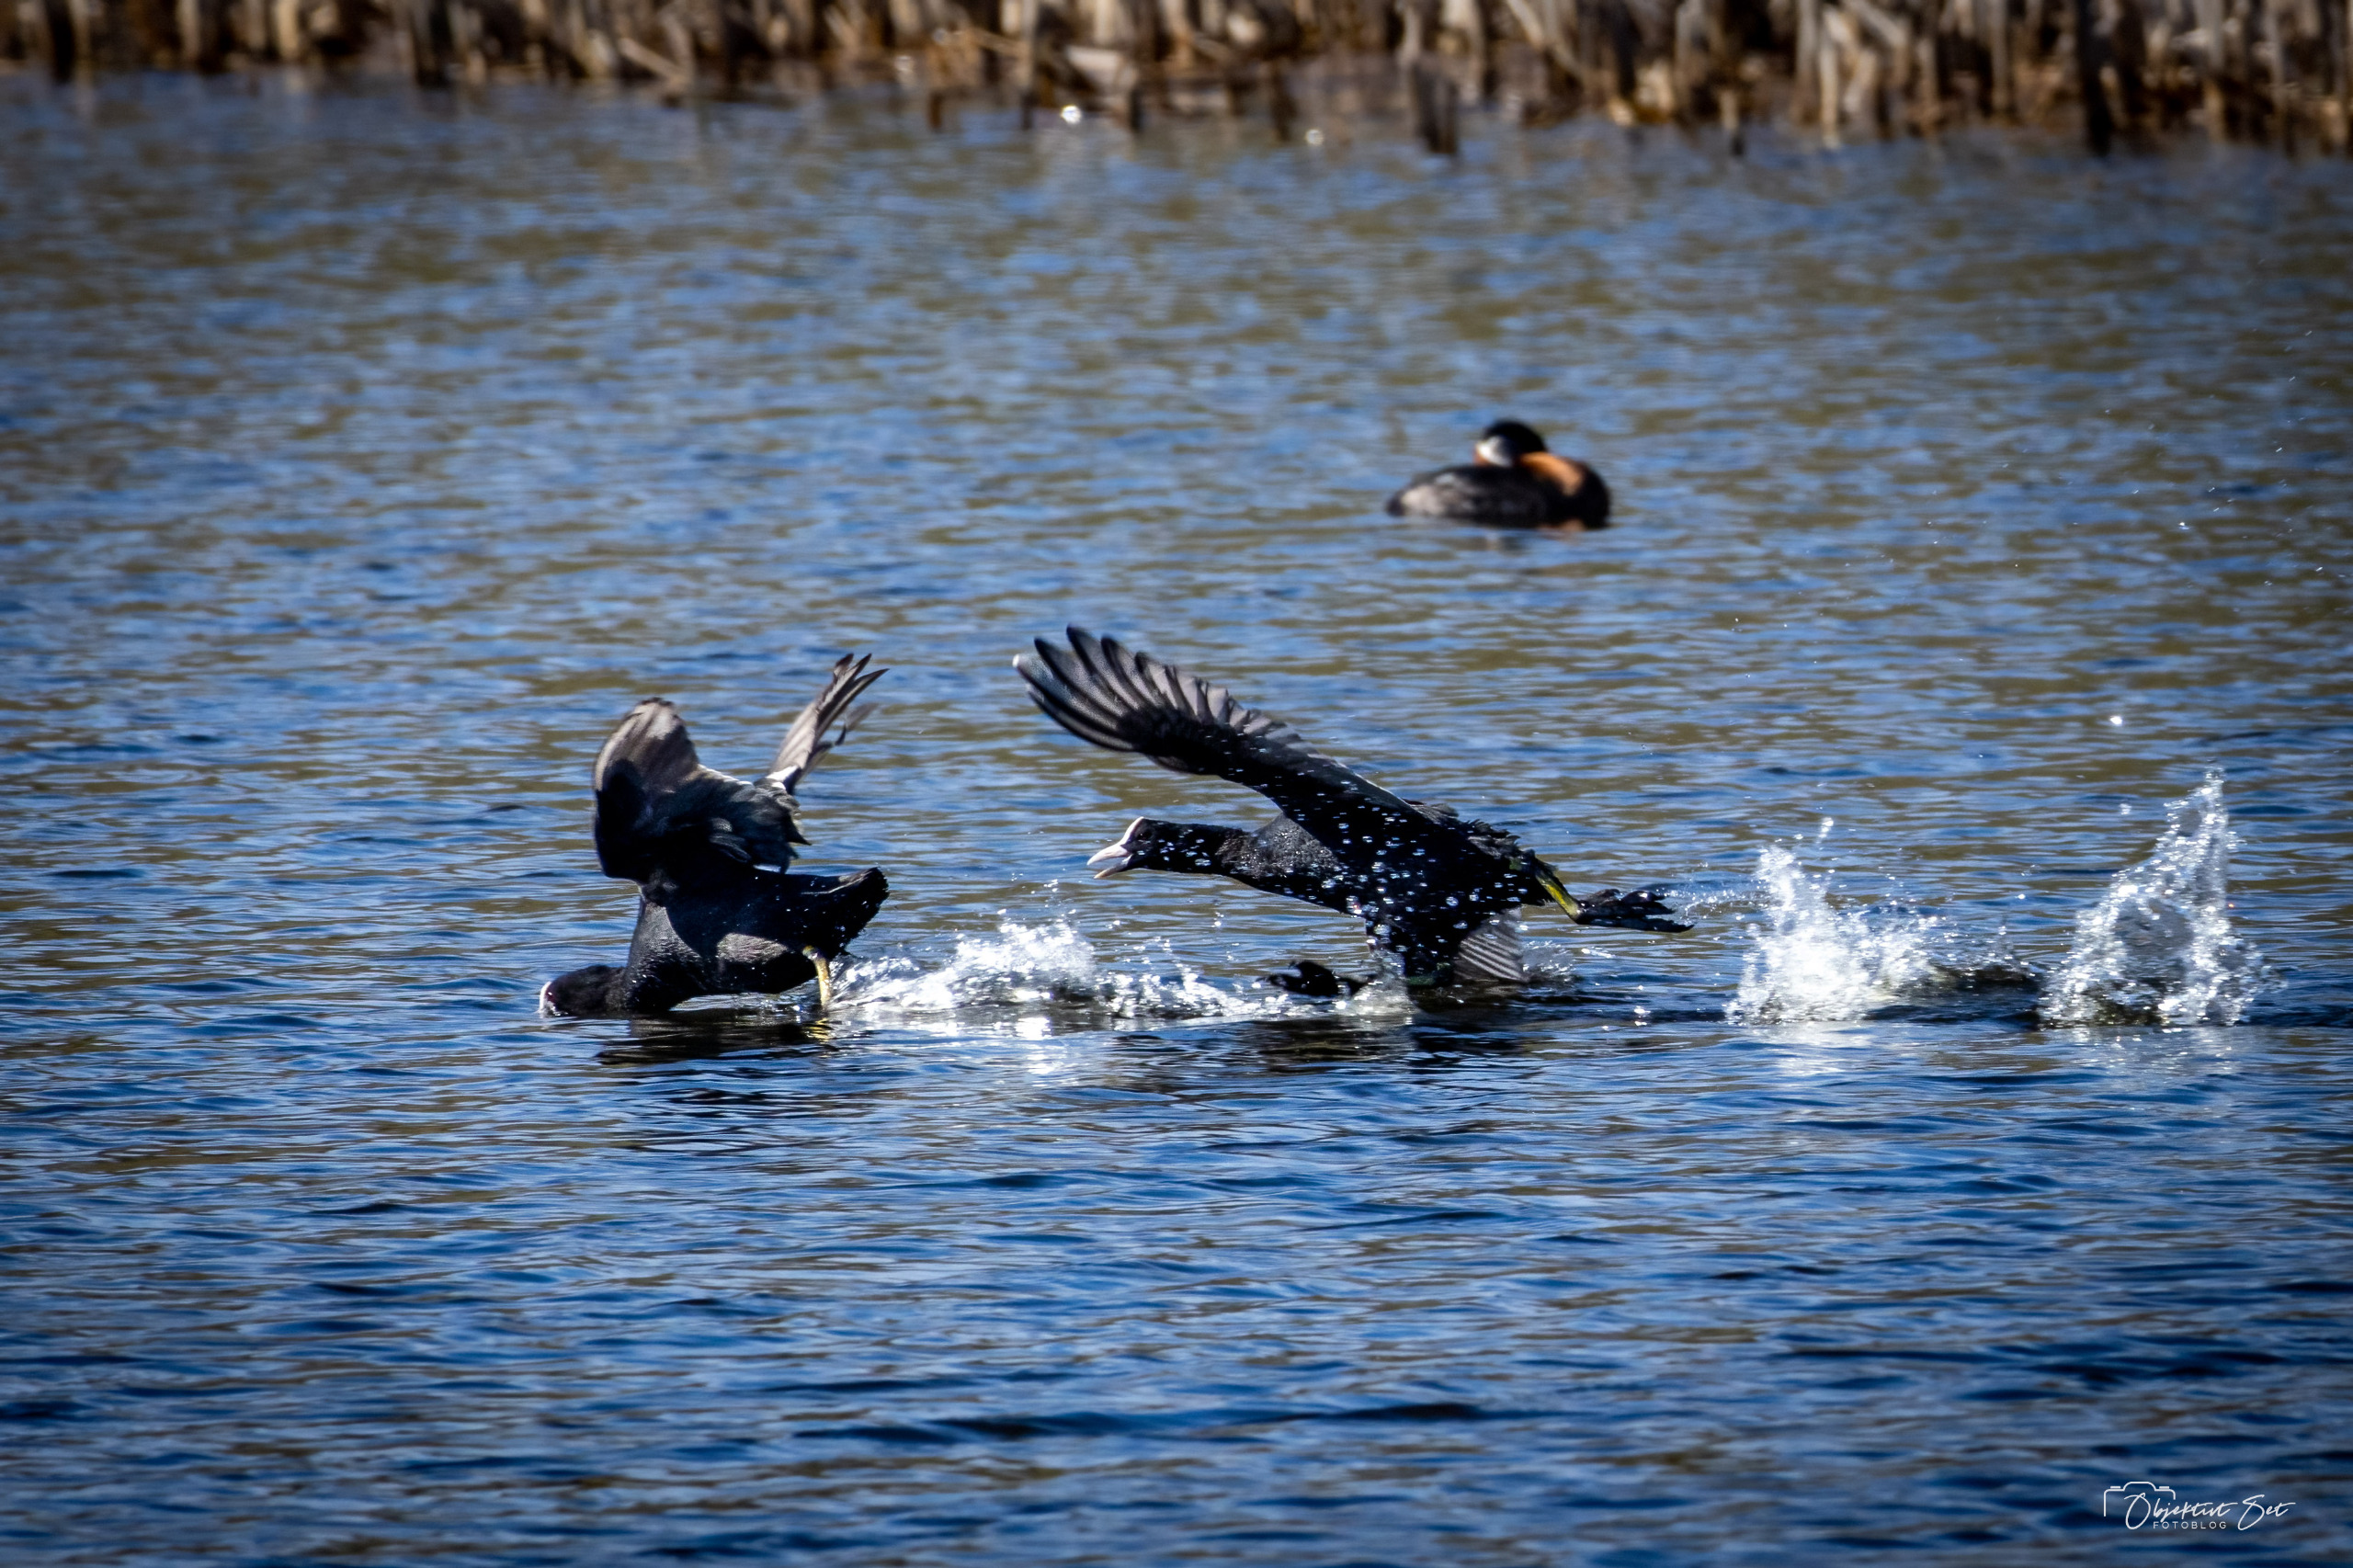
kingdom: Animalia
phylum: Chordata
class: Aves
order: Gruiformes
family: Rallidae
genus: Fulica
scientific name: Fulica atra
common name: Blishøne
